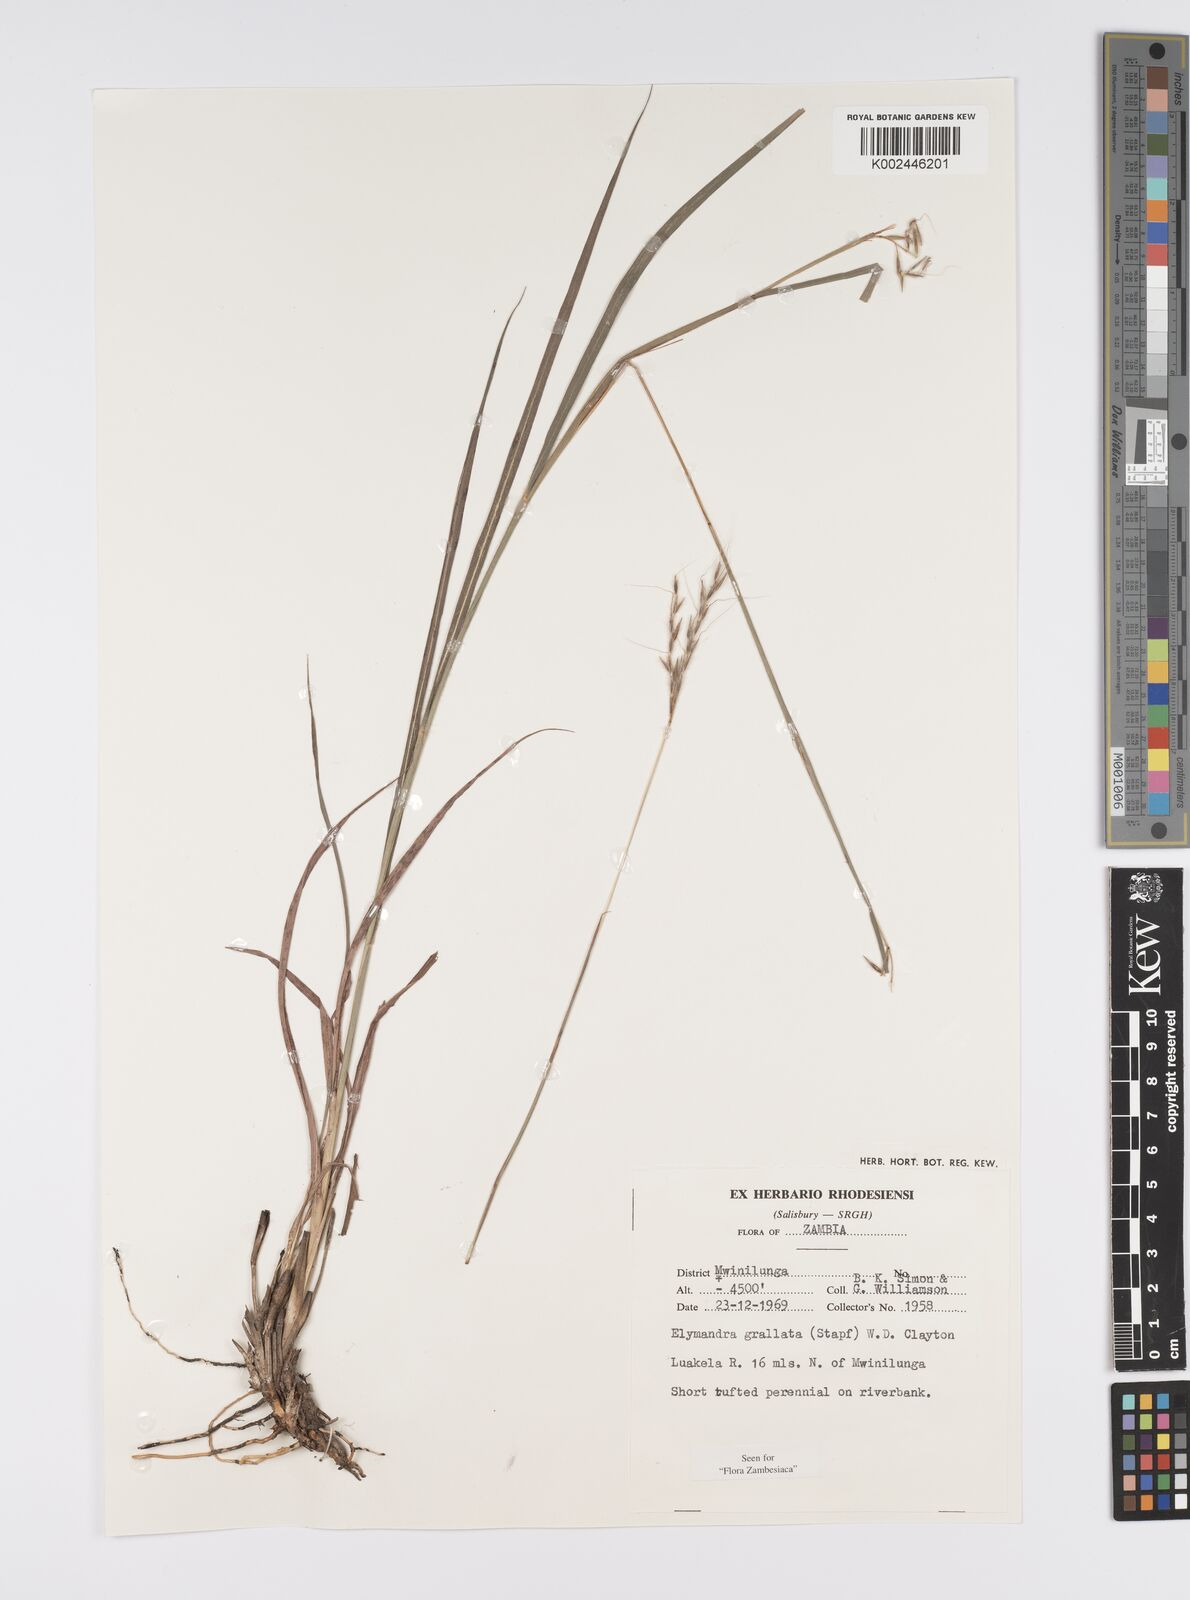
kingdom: Plantae
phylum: Tracheophyta
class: Liliopsida
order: Poales
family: Poaceae
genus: Elymandra
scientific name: Elymandra grallata
